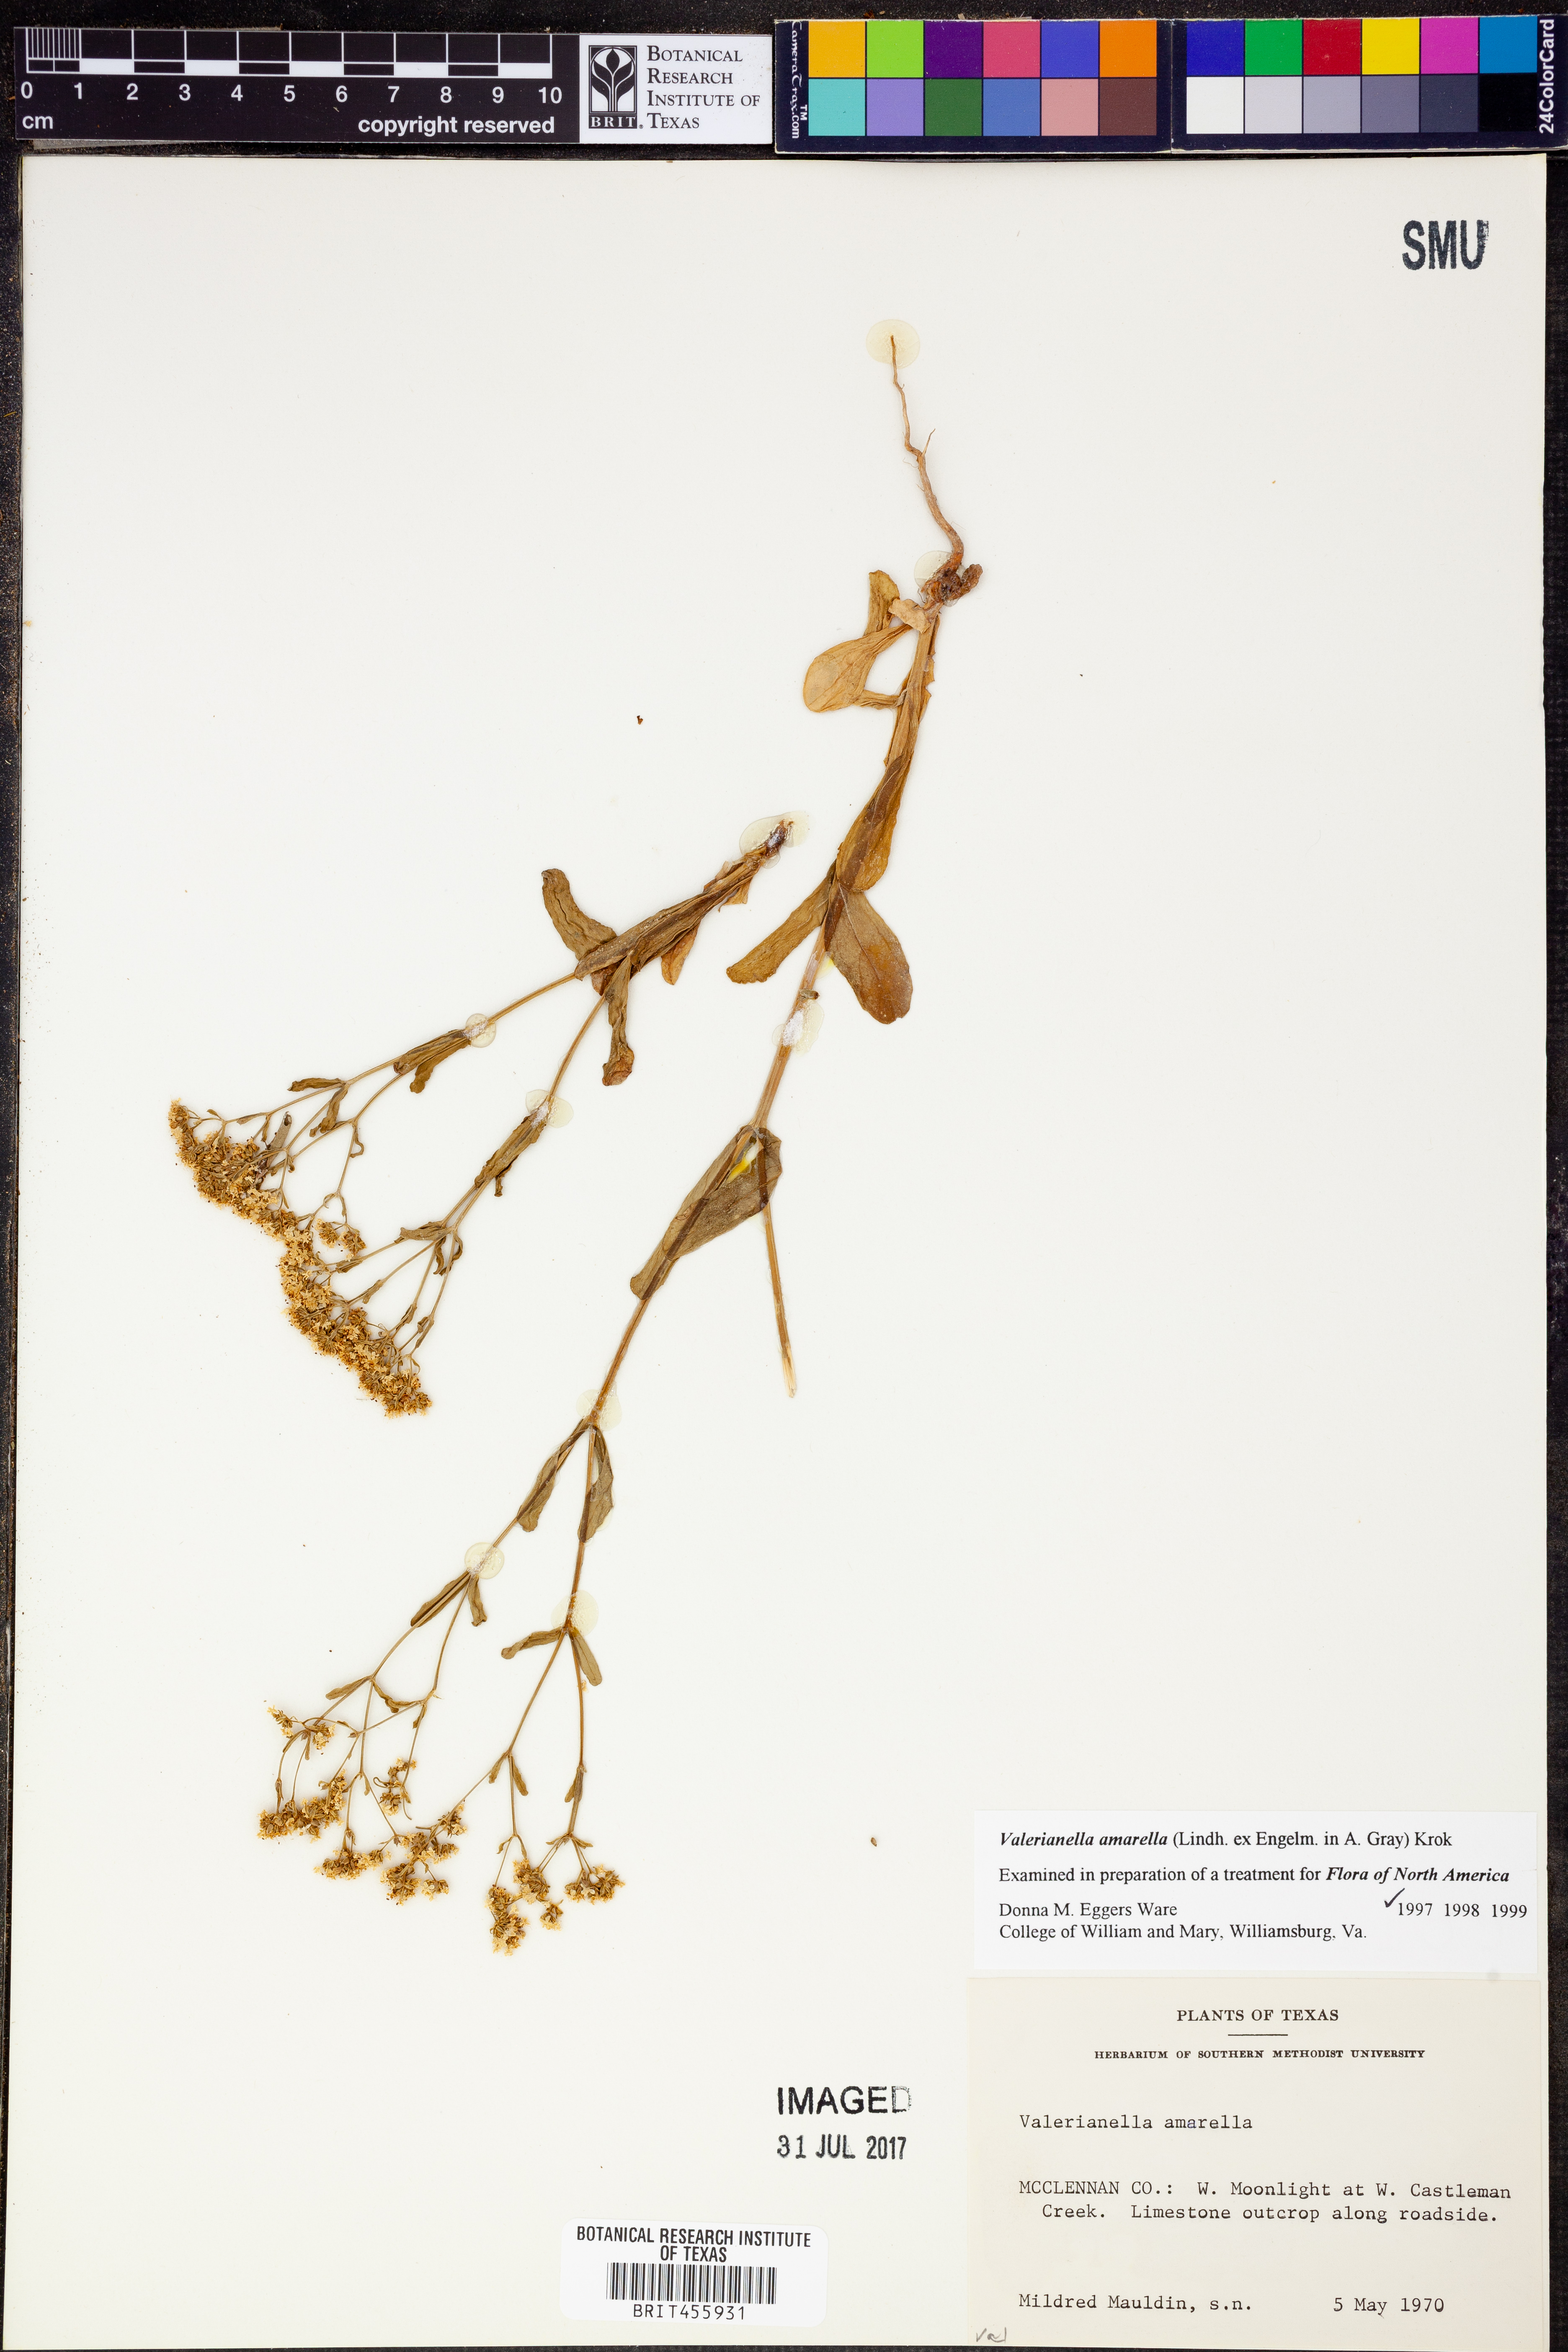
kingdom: Plantae
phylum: Tracheophyta
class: Magnoliopsida
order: Dipsacales
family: Caprifoliaceae
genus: Valerianella
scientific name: Valerianella amarella
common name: Hariy cornsalad
